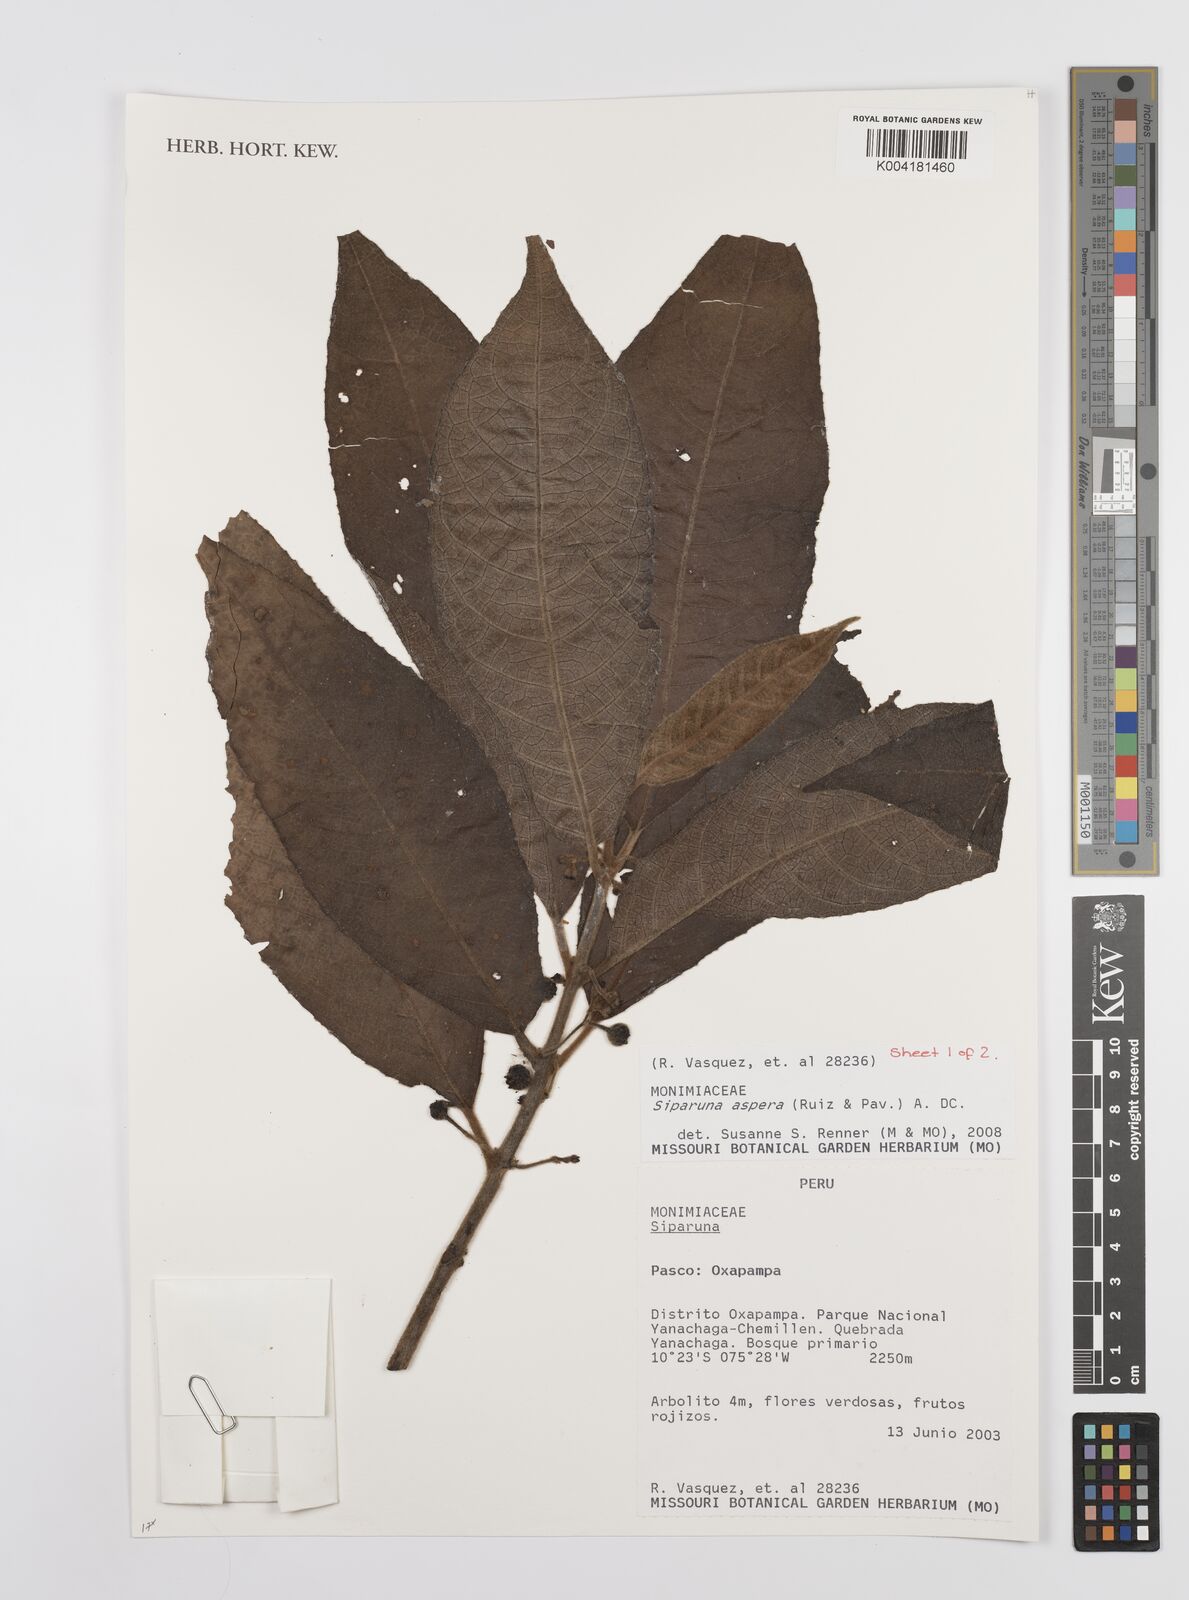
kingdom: Plantae
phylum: Tracheophyta
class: Magnoliopsida
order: Laurales
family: Siparunaceae
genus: Siparuna
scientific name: Siparuna aspera
